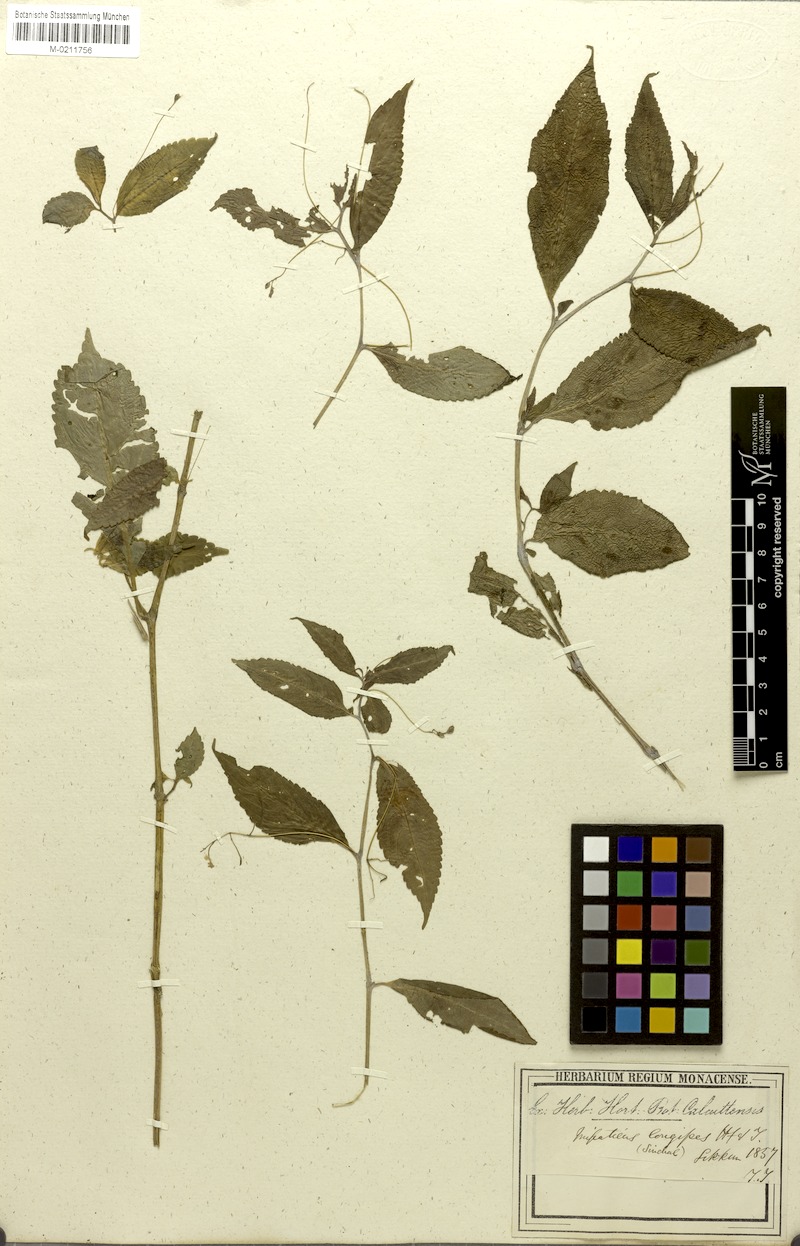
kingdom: Plantae
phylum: Tracheophyta
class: Magnoliopsida
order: Ericales
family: Balsaminaceae
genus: Impatiens
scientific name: Impatiens longipes
